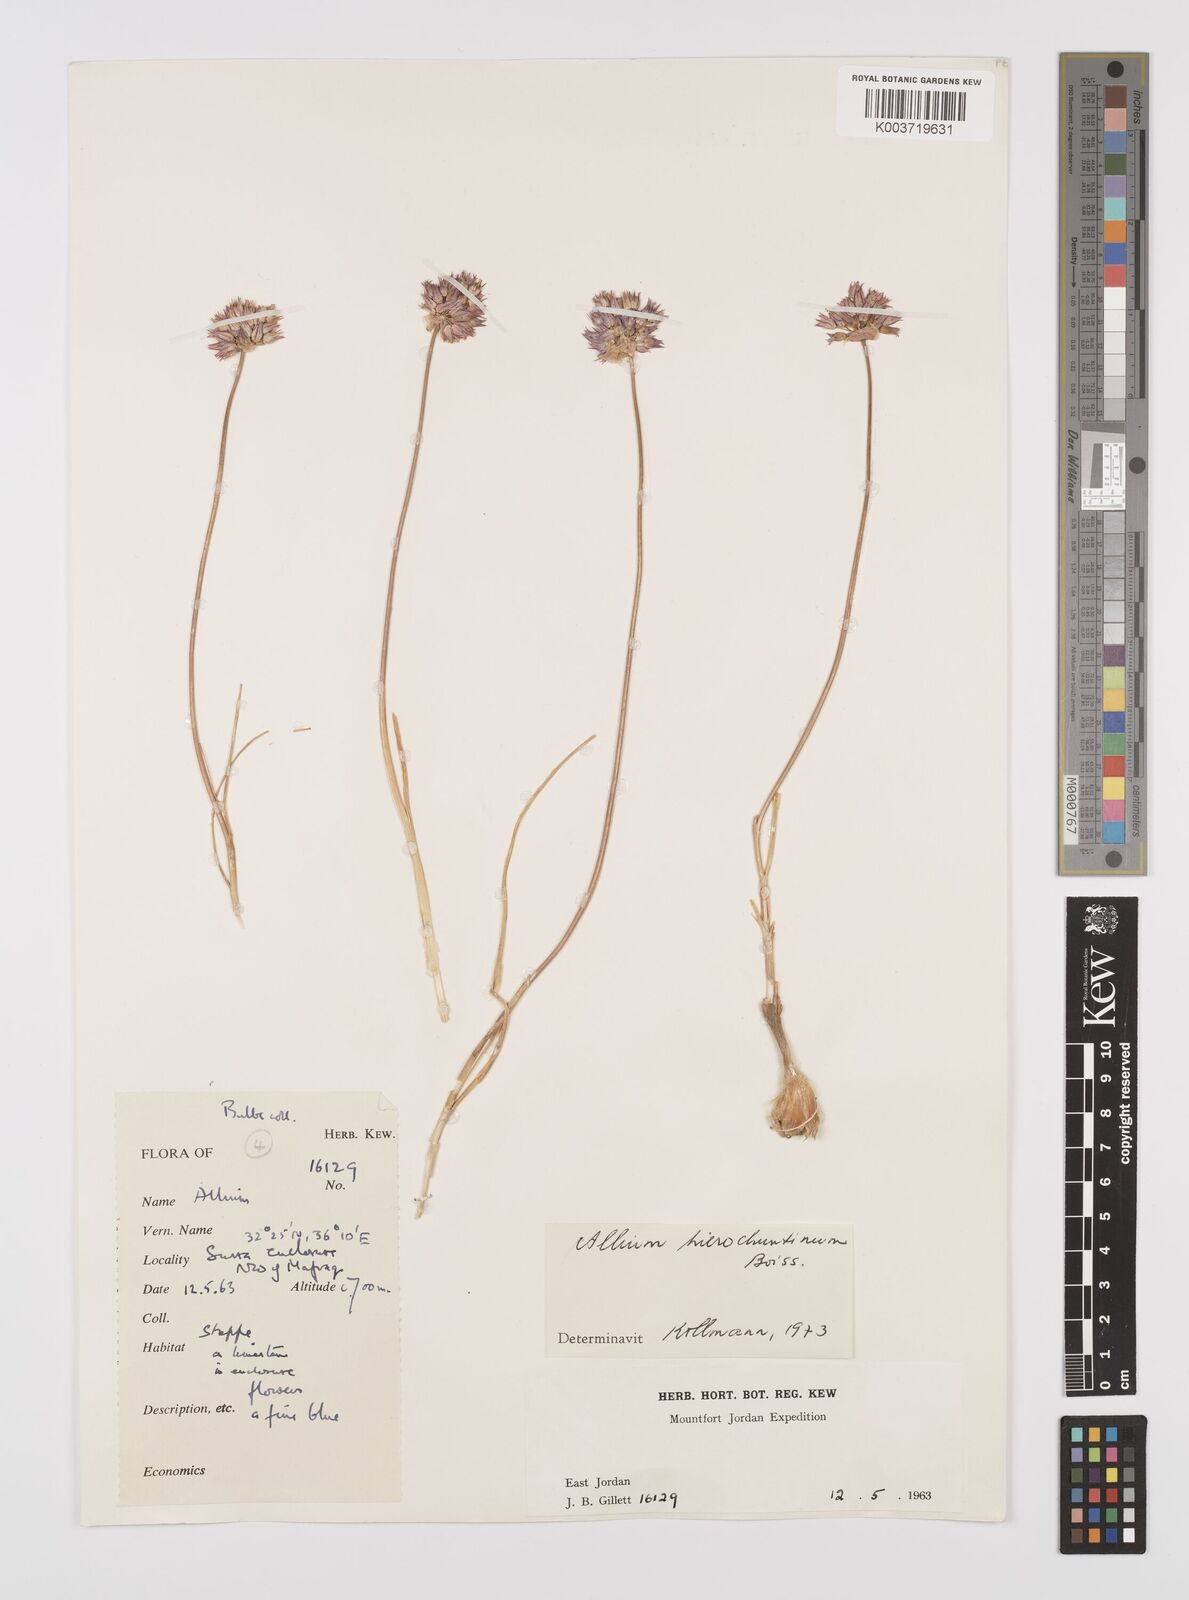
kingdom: Plantae
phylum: Tracheophyta
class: Liliopsida
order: Asparagales
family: Amaryllidaceae
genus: Allium
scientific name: Allium hierosolymorum
